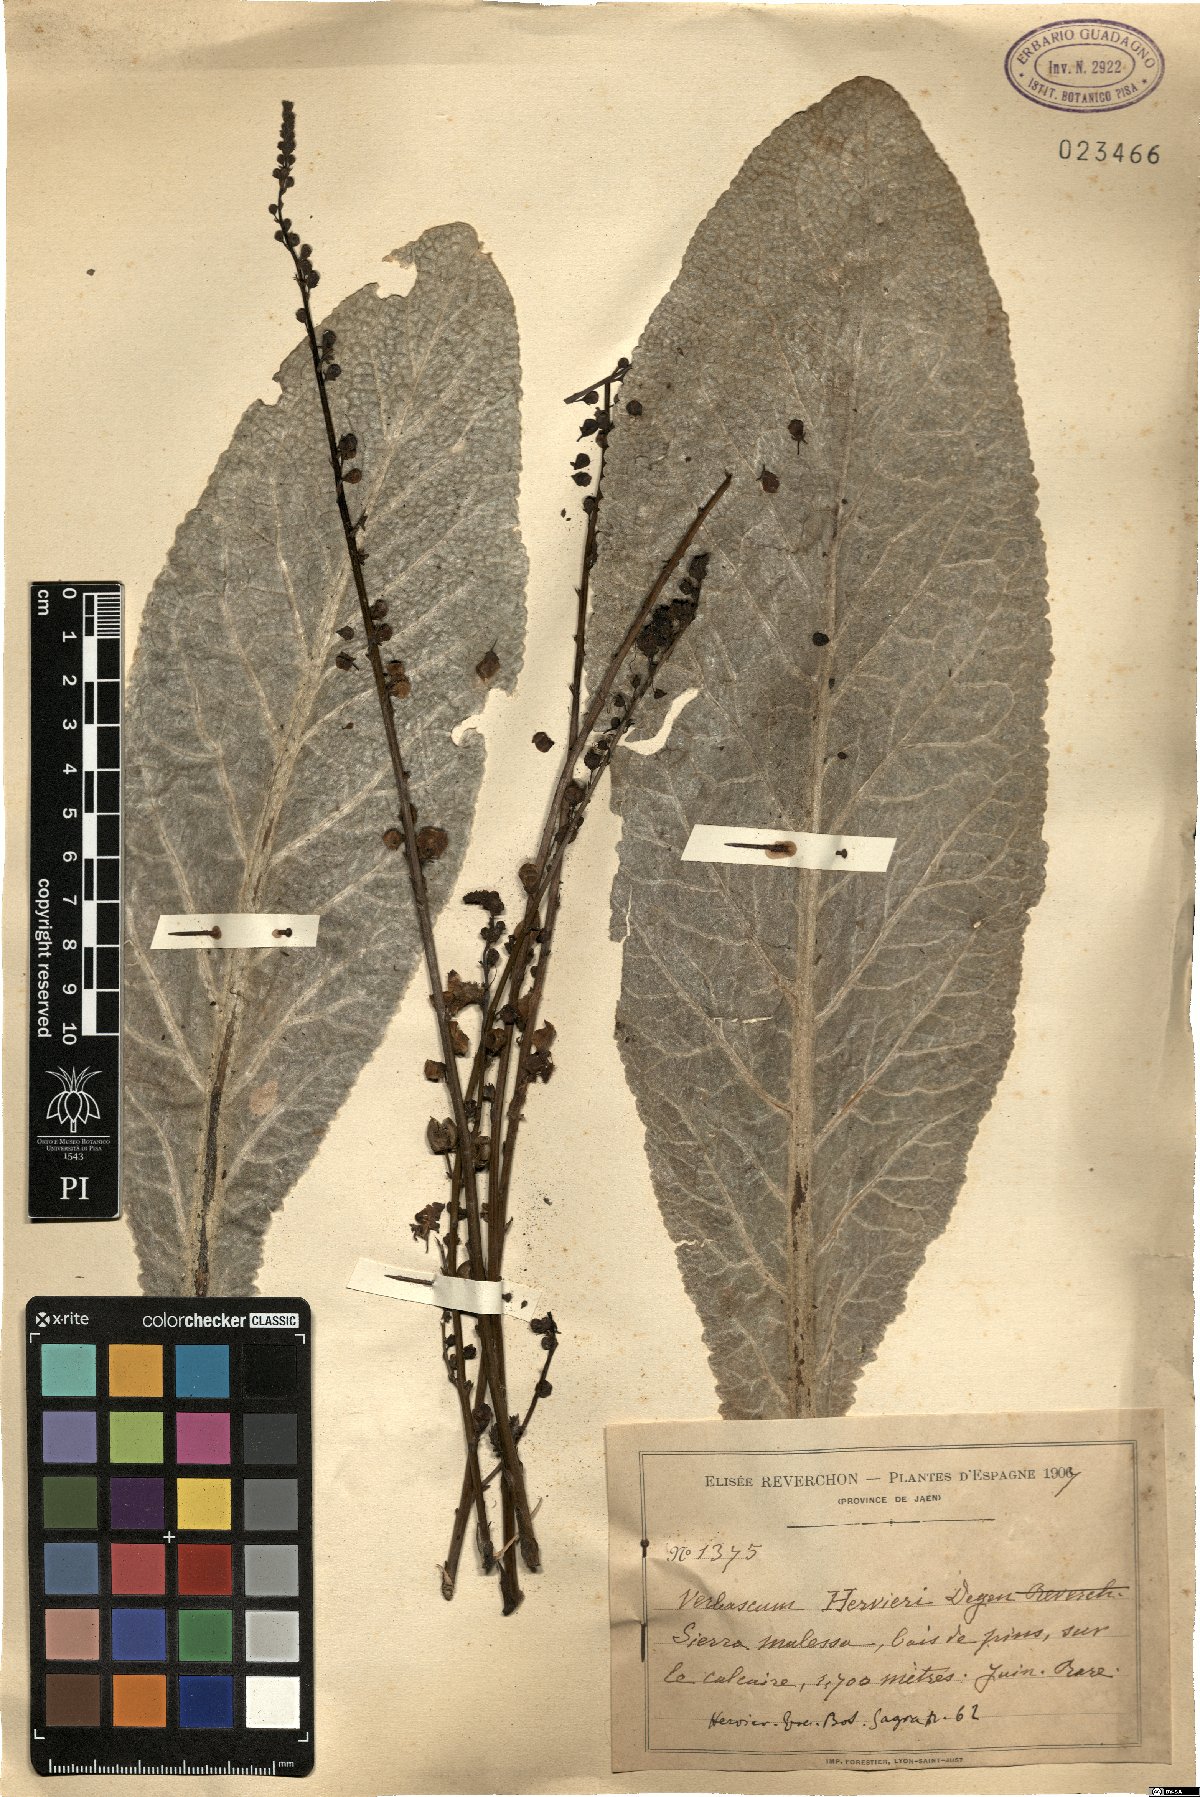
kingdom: Plantae
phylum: Tracheophyta
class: Magnoliopsida
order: Lamiales
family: Scrophulariaceae
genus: Verbascum
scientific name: Verbascum hervieri
